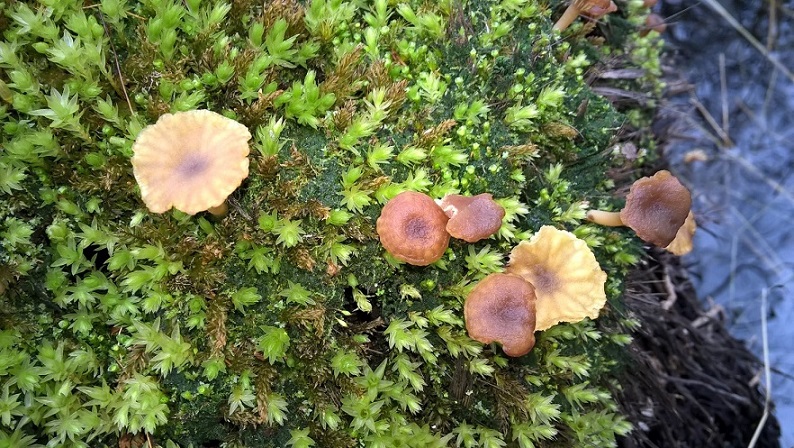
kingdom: Fungi
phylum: Basidiomycota
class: Agaricomycetes
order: Agaricales
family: Hygrophoraceae
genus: Lichenomphalia
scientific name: Lichenomphalia umbellifera
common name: tørve-lavhat
